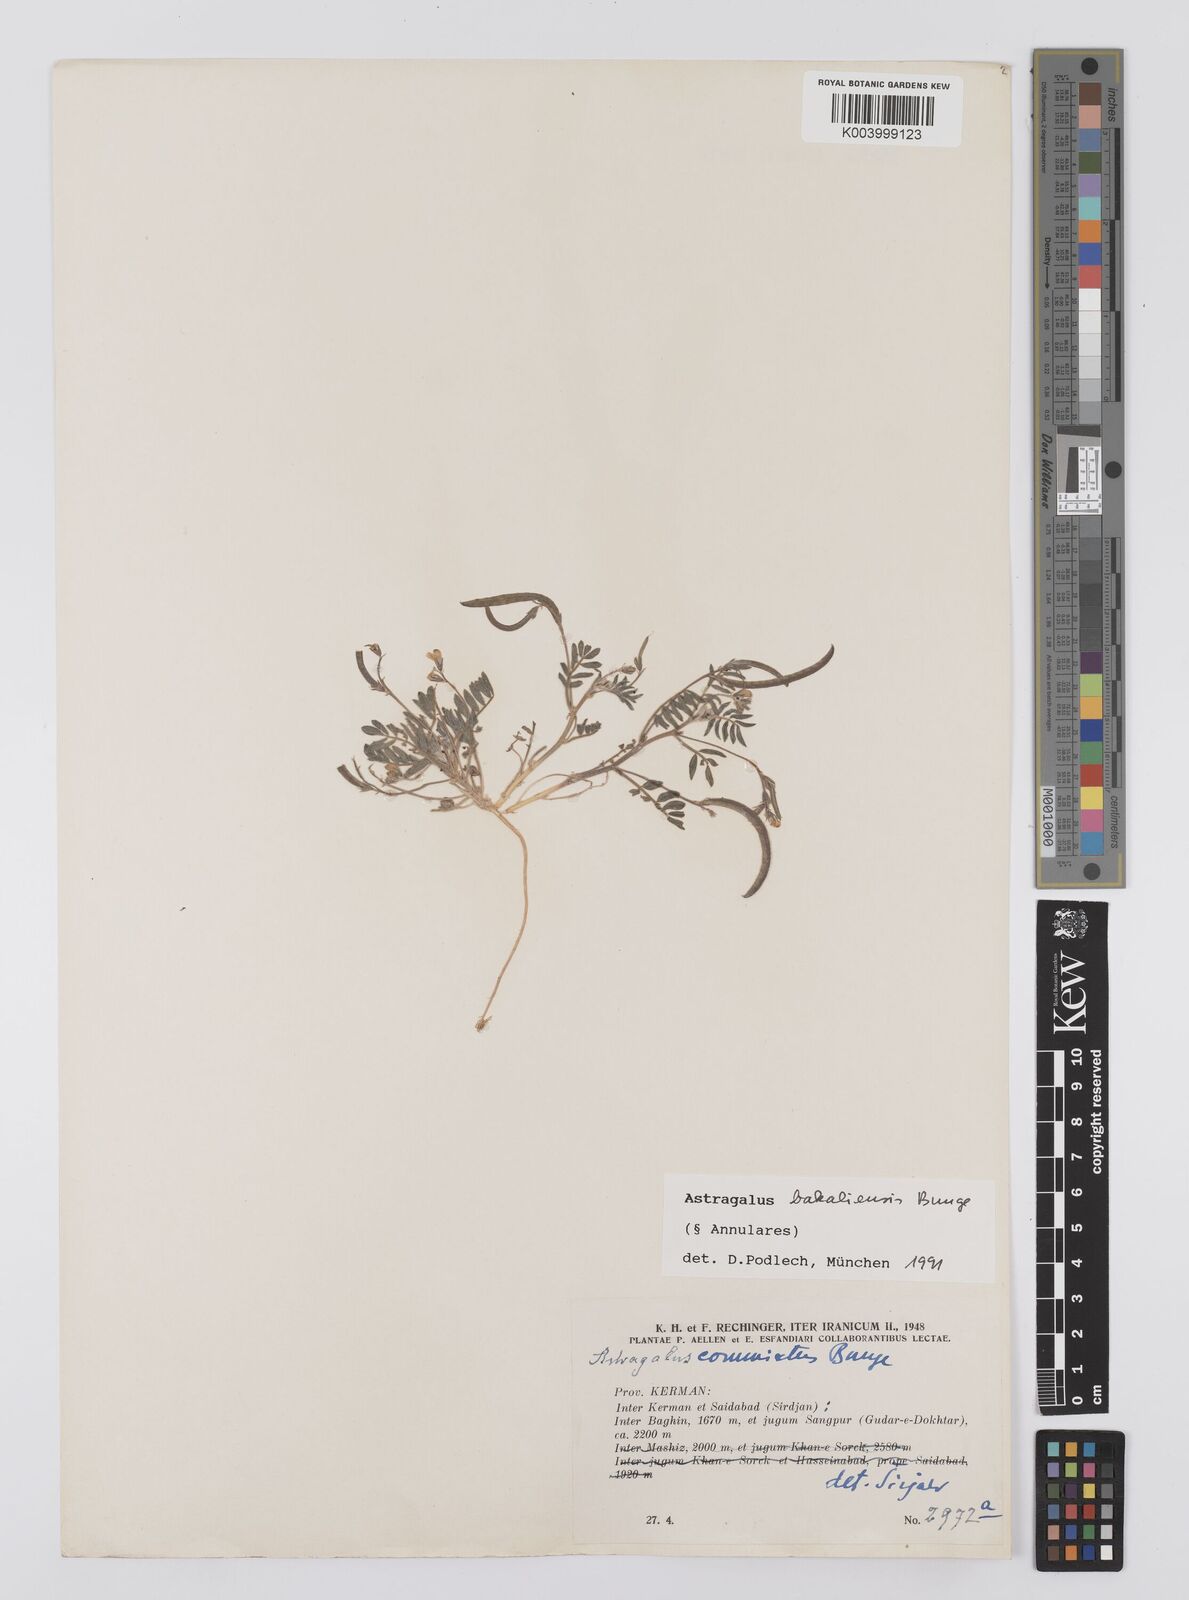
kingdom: Plantae
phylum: Tracheophyta
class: Magnoliopsida
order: Fabales
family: Fabaceae
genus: Astragalus
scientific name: Astragalus bakaliensis
